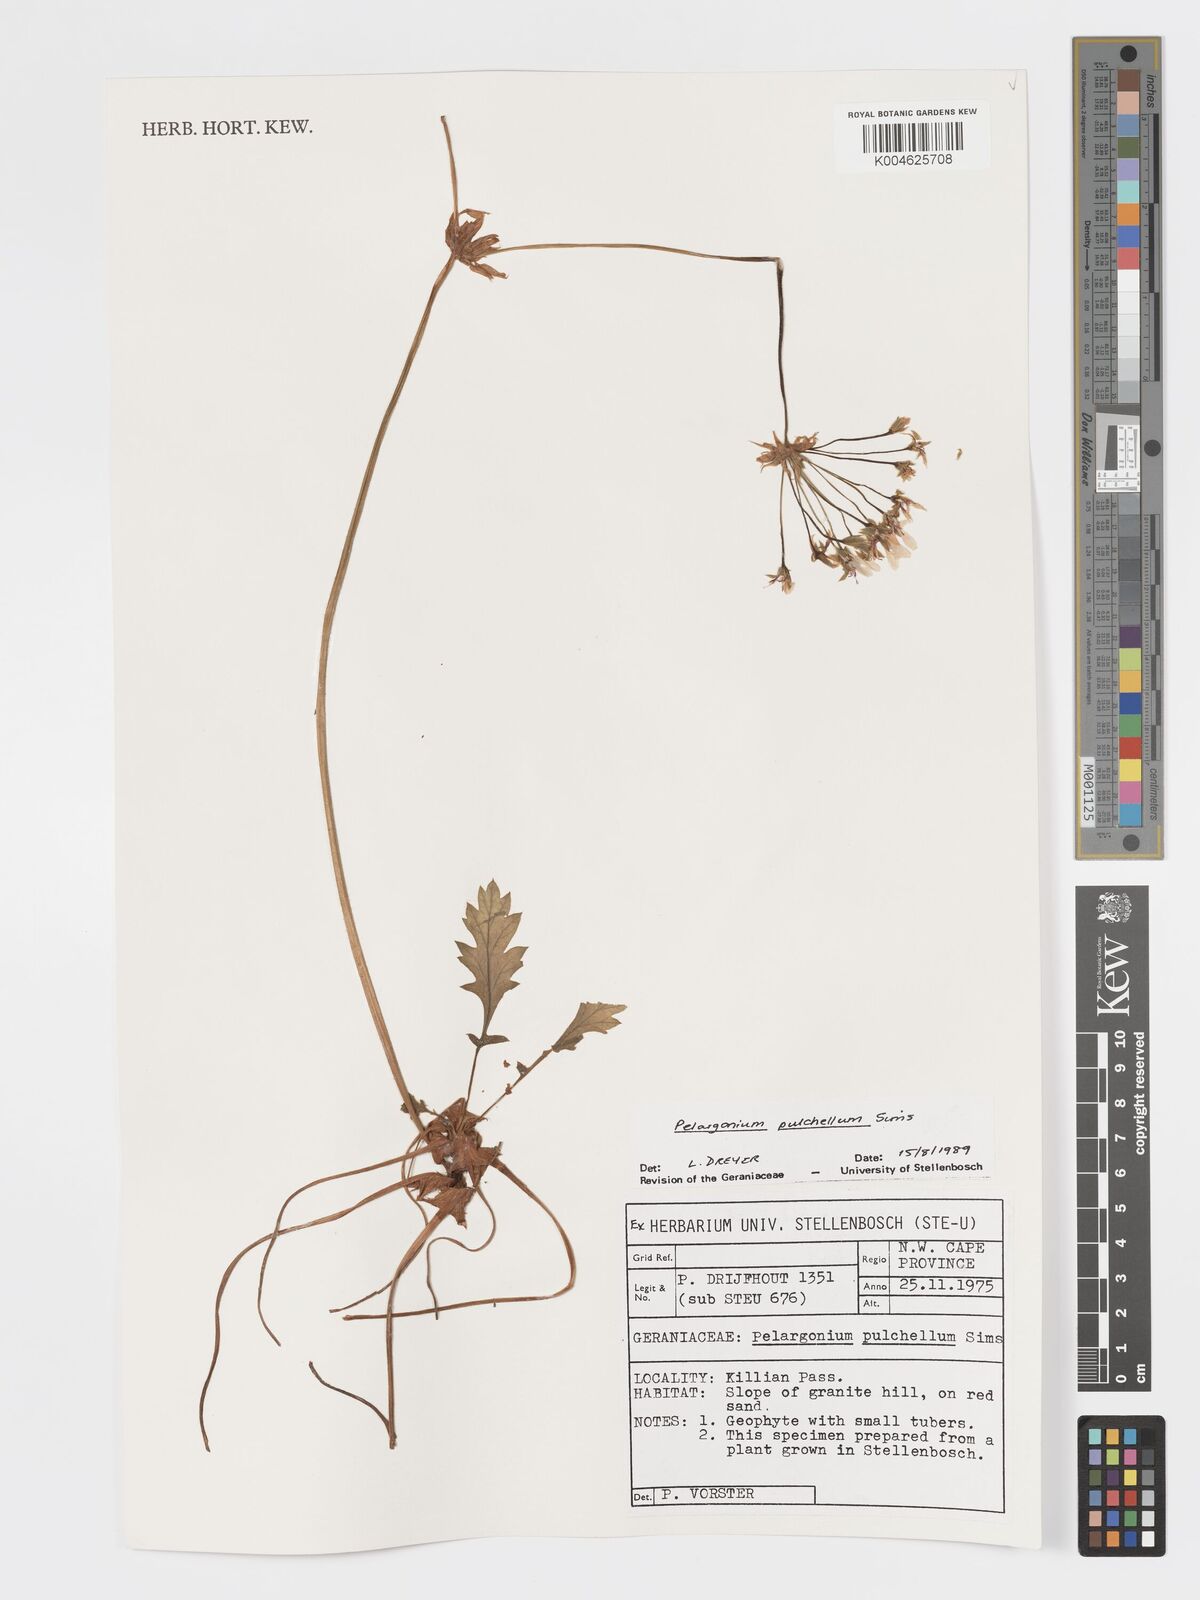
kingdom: Plantae
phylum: Tracheophyta
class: Magnoliopsida
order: Geraniales
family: Geraniaceae
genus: Pelargonium
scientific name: Pelargonium
